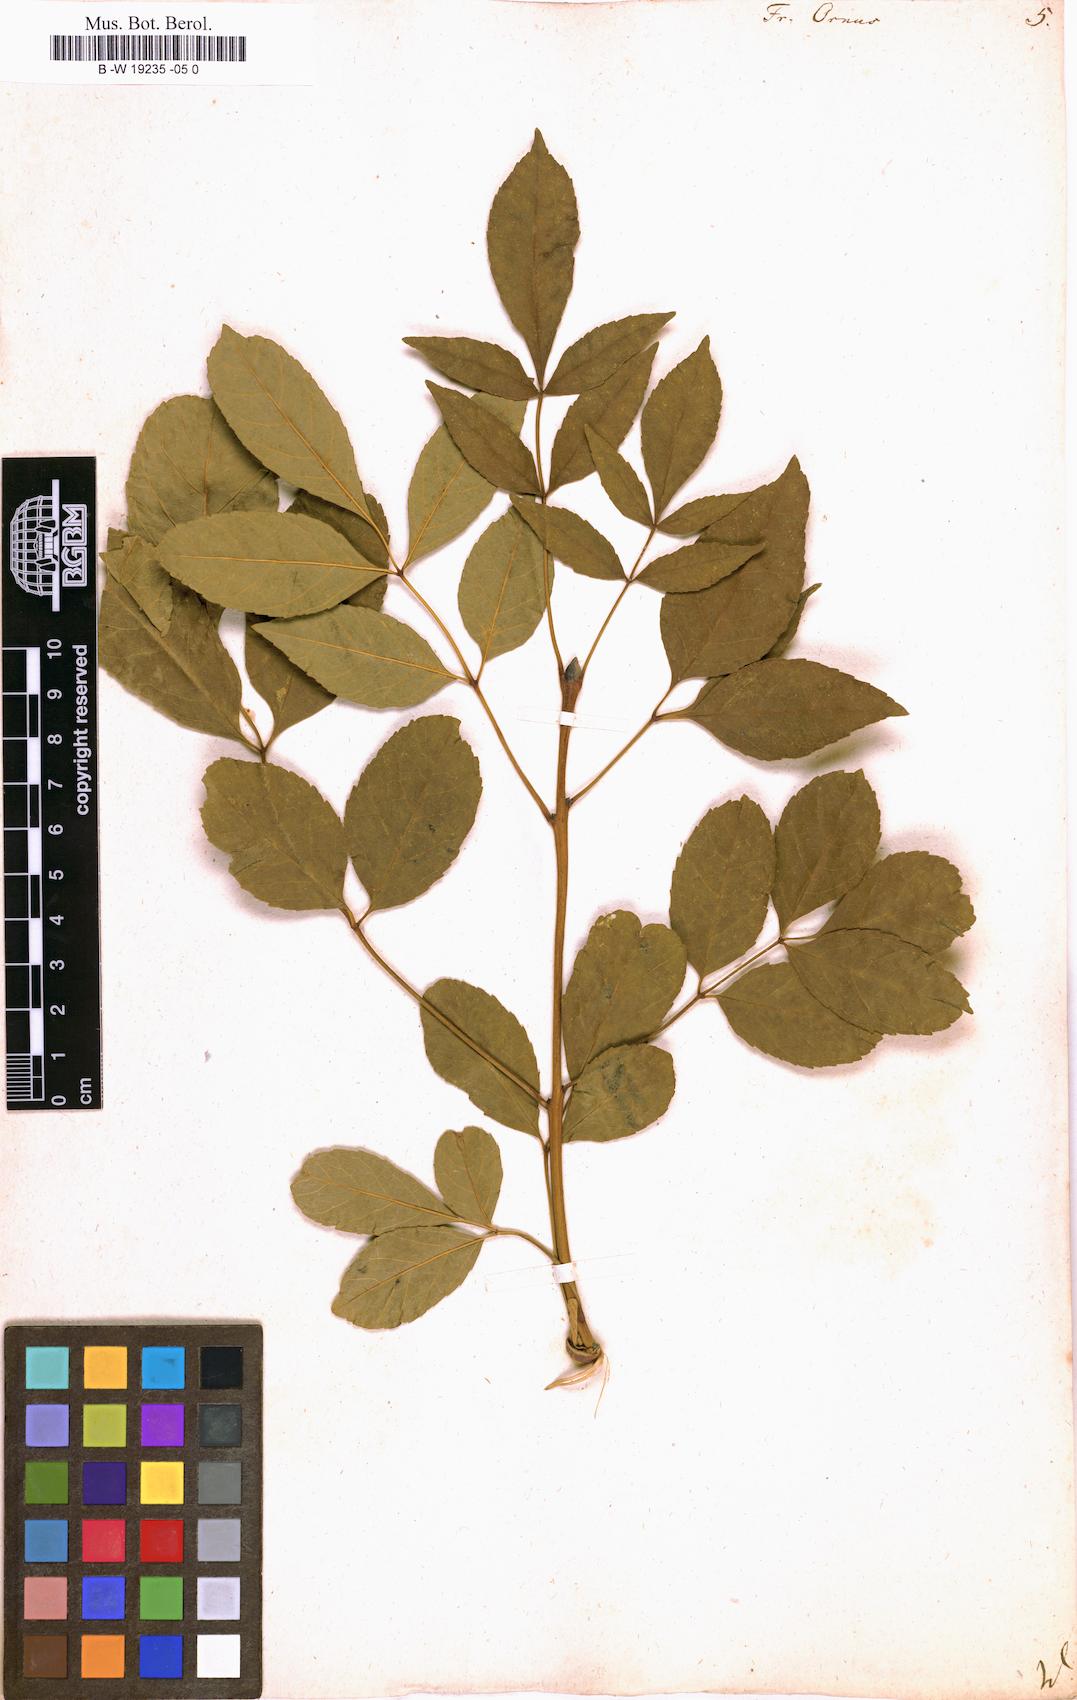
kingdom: Plantae
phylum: Tracheophyta
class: Magnoliopsida
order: Lamiales
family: Oleaceae
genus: Fraxinus
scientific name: Fraxinus ornus
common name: Manna ash
